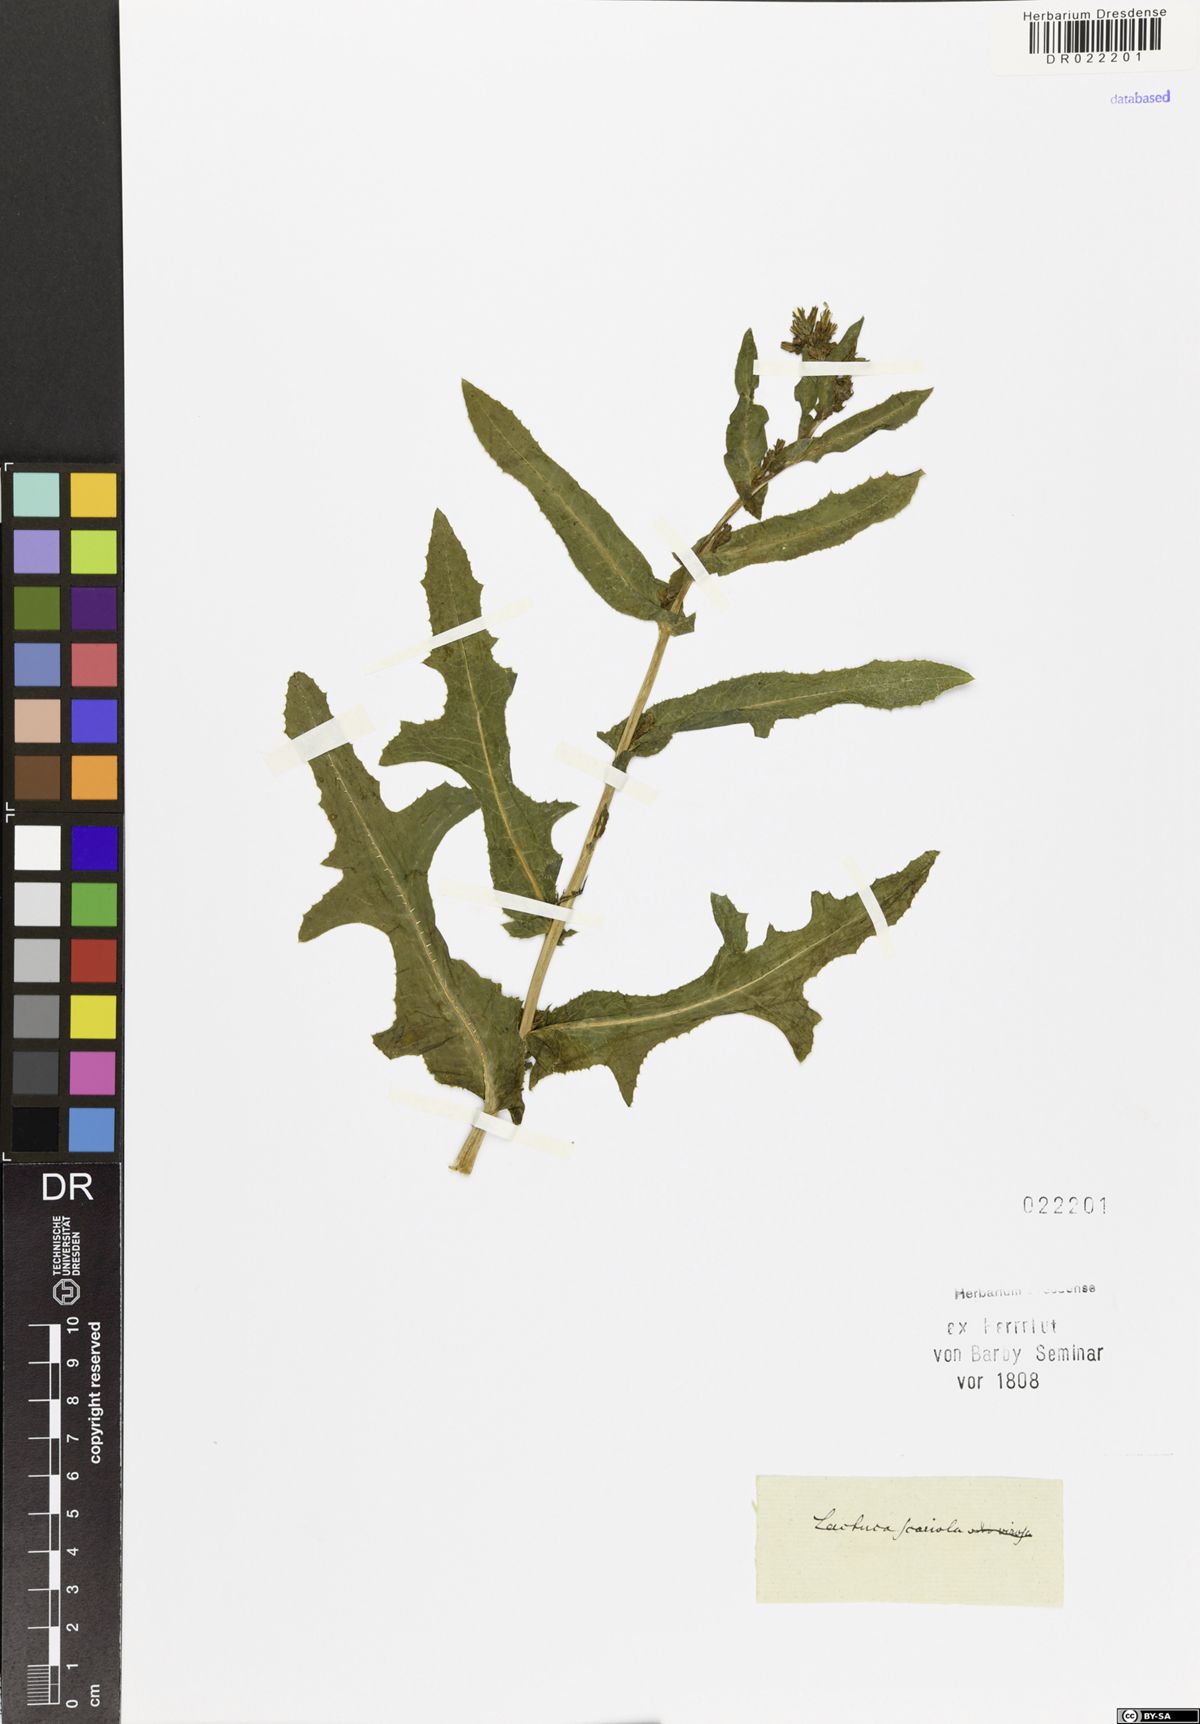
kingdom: Plantae
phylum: Tracheophyta
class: Magnoliopsida
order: Asterales
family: Asteraceae
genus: Lactuca
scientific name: Lactuca serriola
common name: Prickly lettuce
